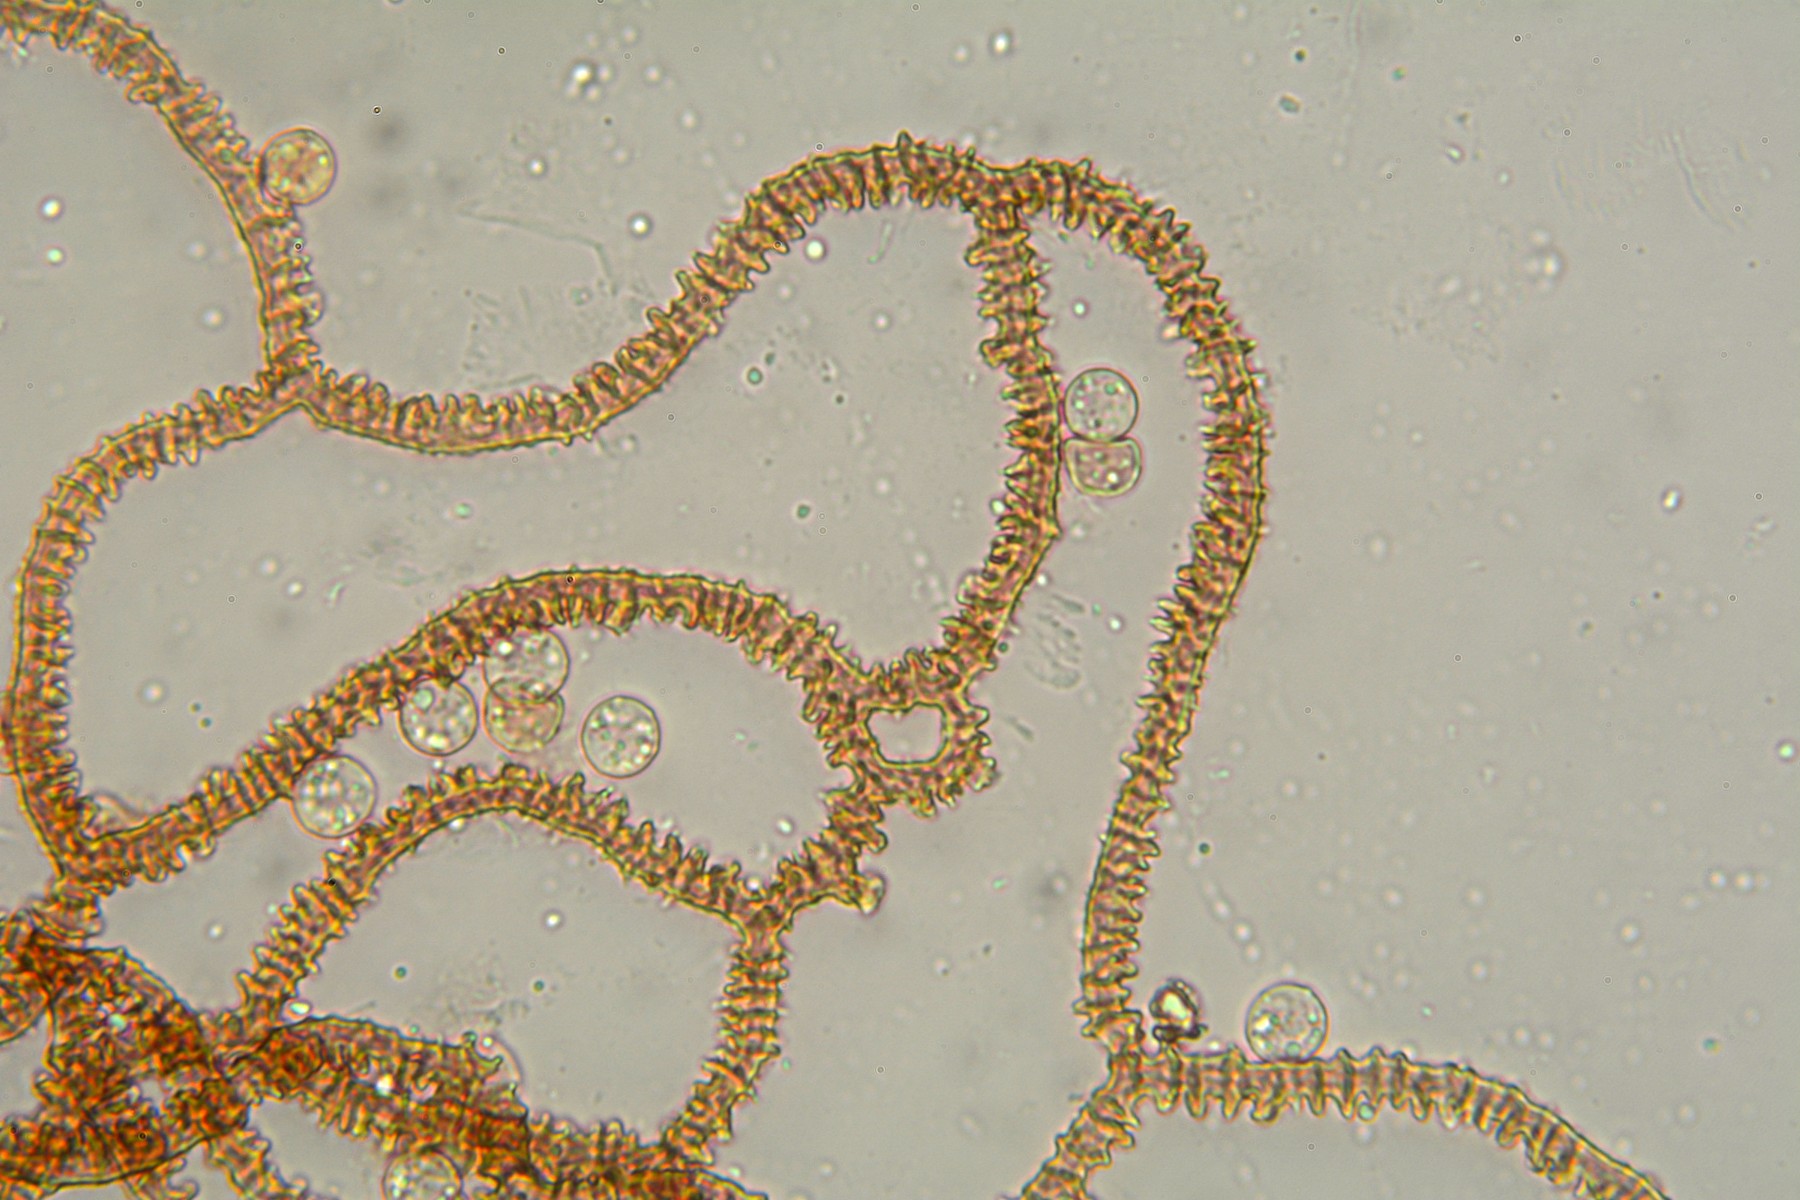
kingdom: Protozoa
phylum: Mycetozoa
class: Myxomycetes
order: Trichiales
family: Arcyriaceae
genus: Arcyria
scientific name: Arcyria denudata
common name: karminrød skålsvøb
